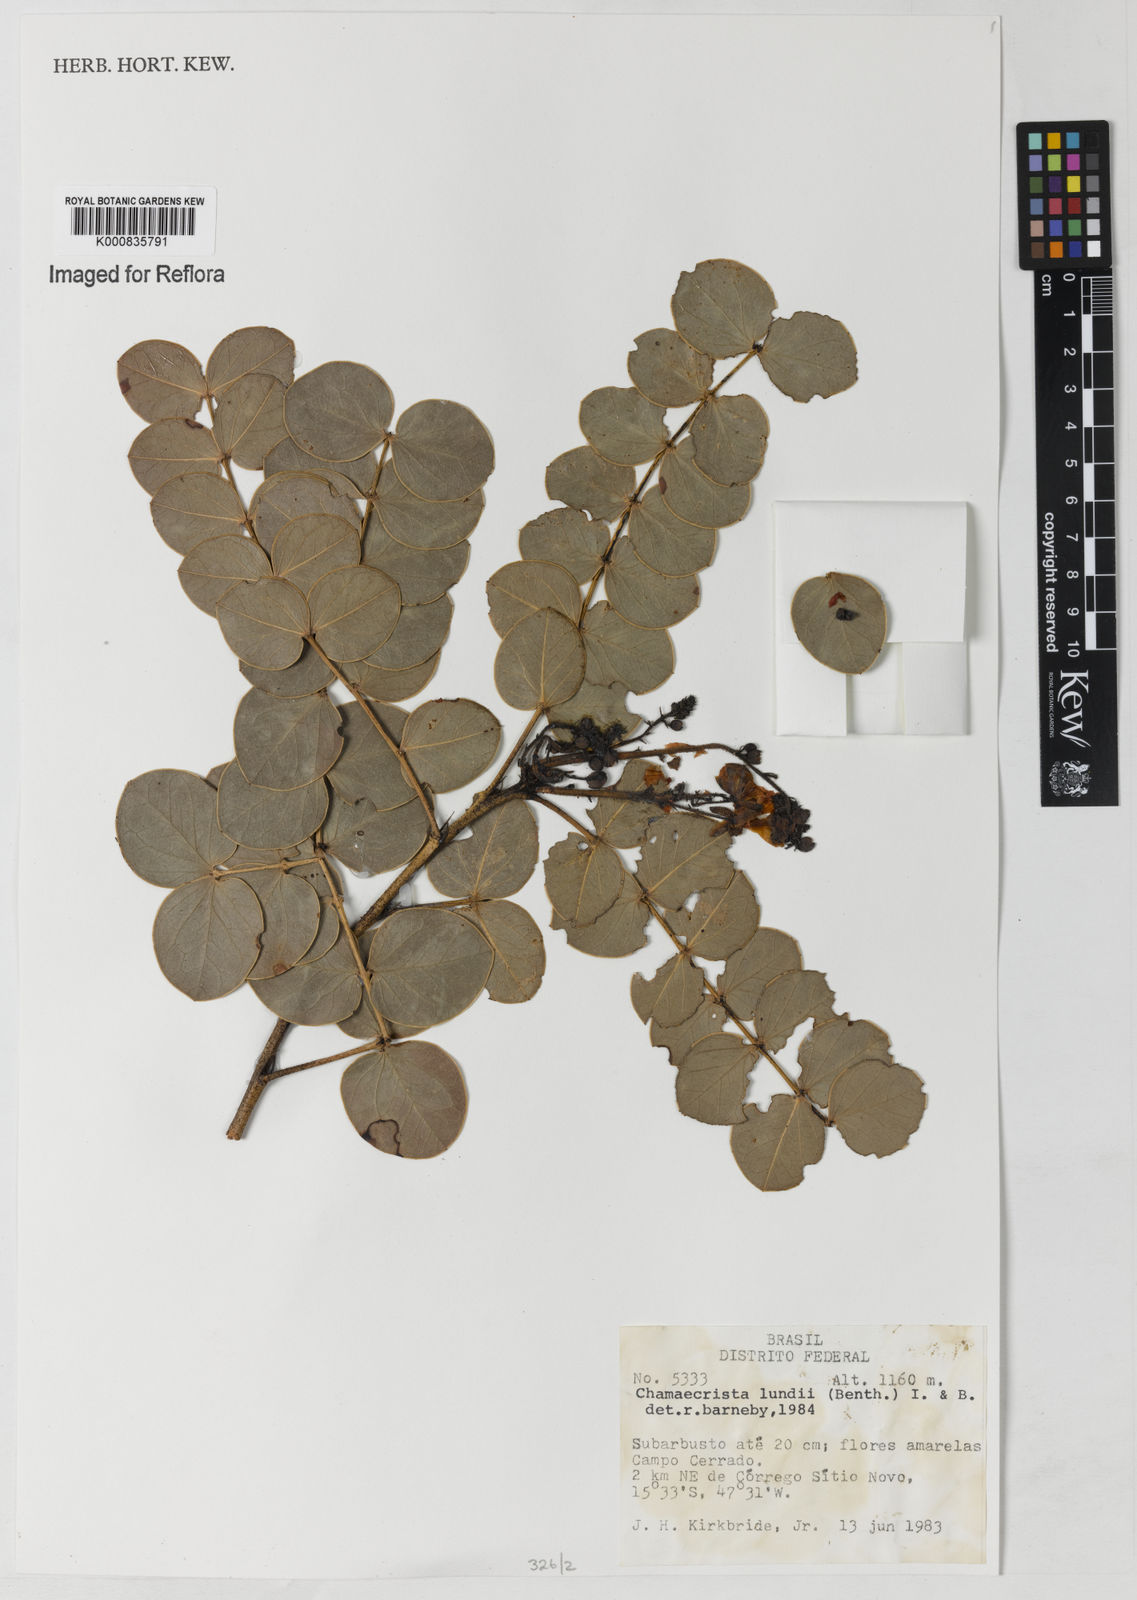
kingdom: Plantae
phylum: Tracheophyta
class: Magnoliopsida
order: Fabales
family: Fabaceae
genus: Chamaecrista
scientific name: Chamaecrista lundii
